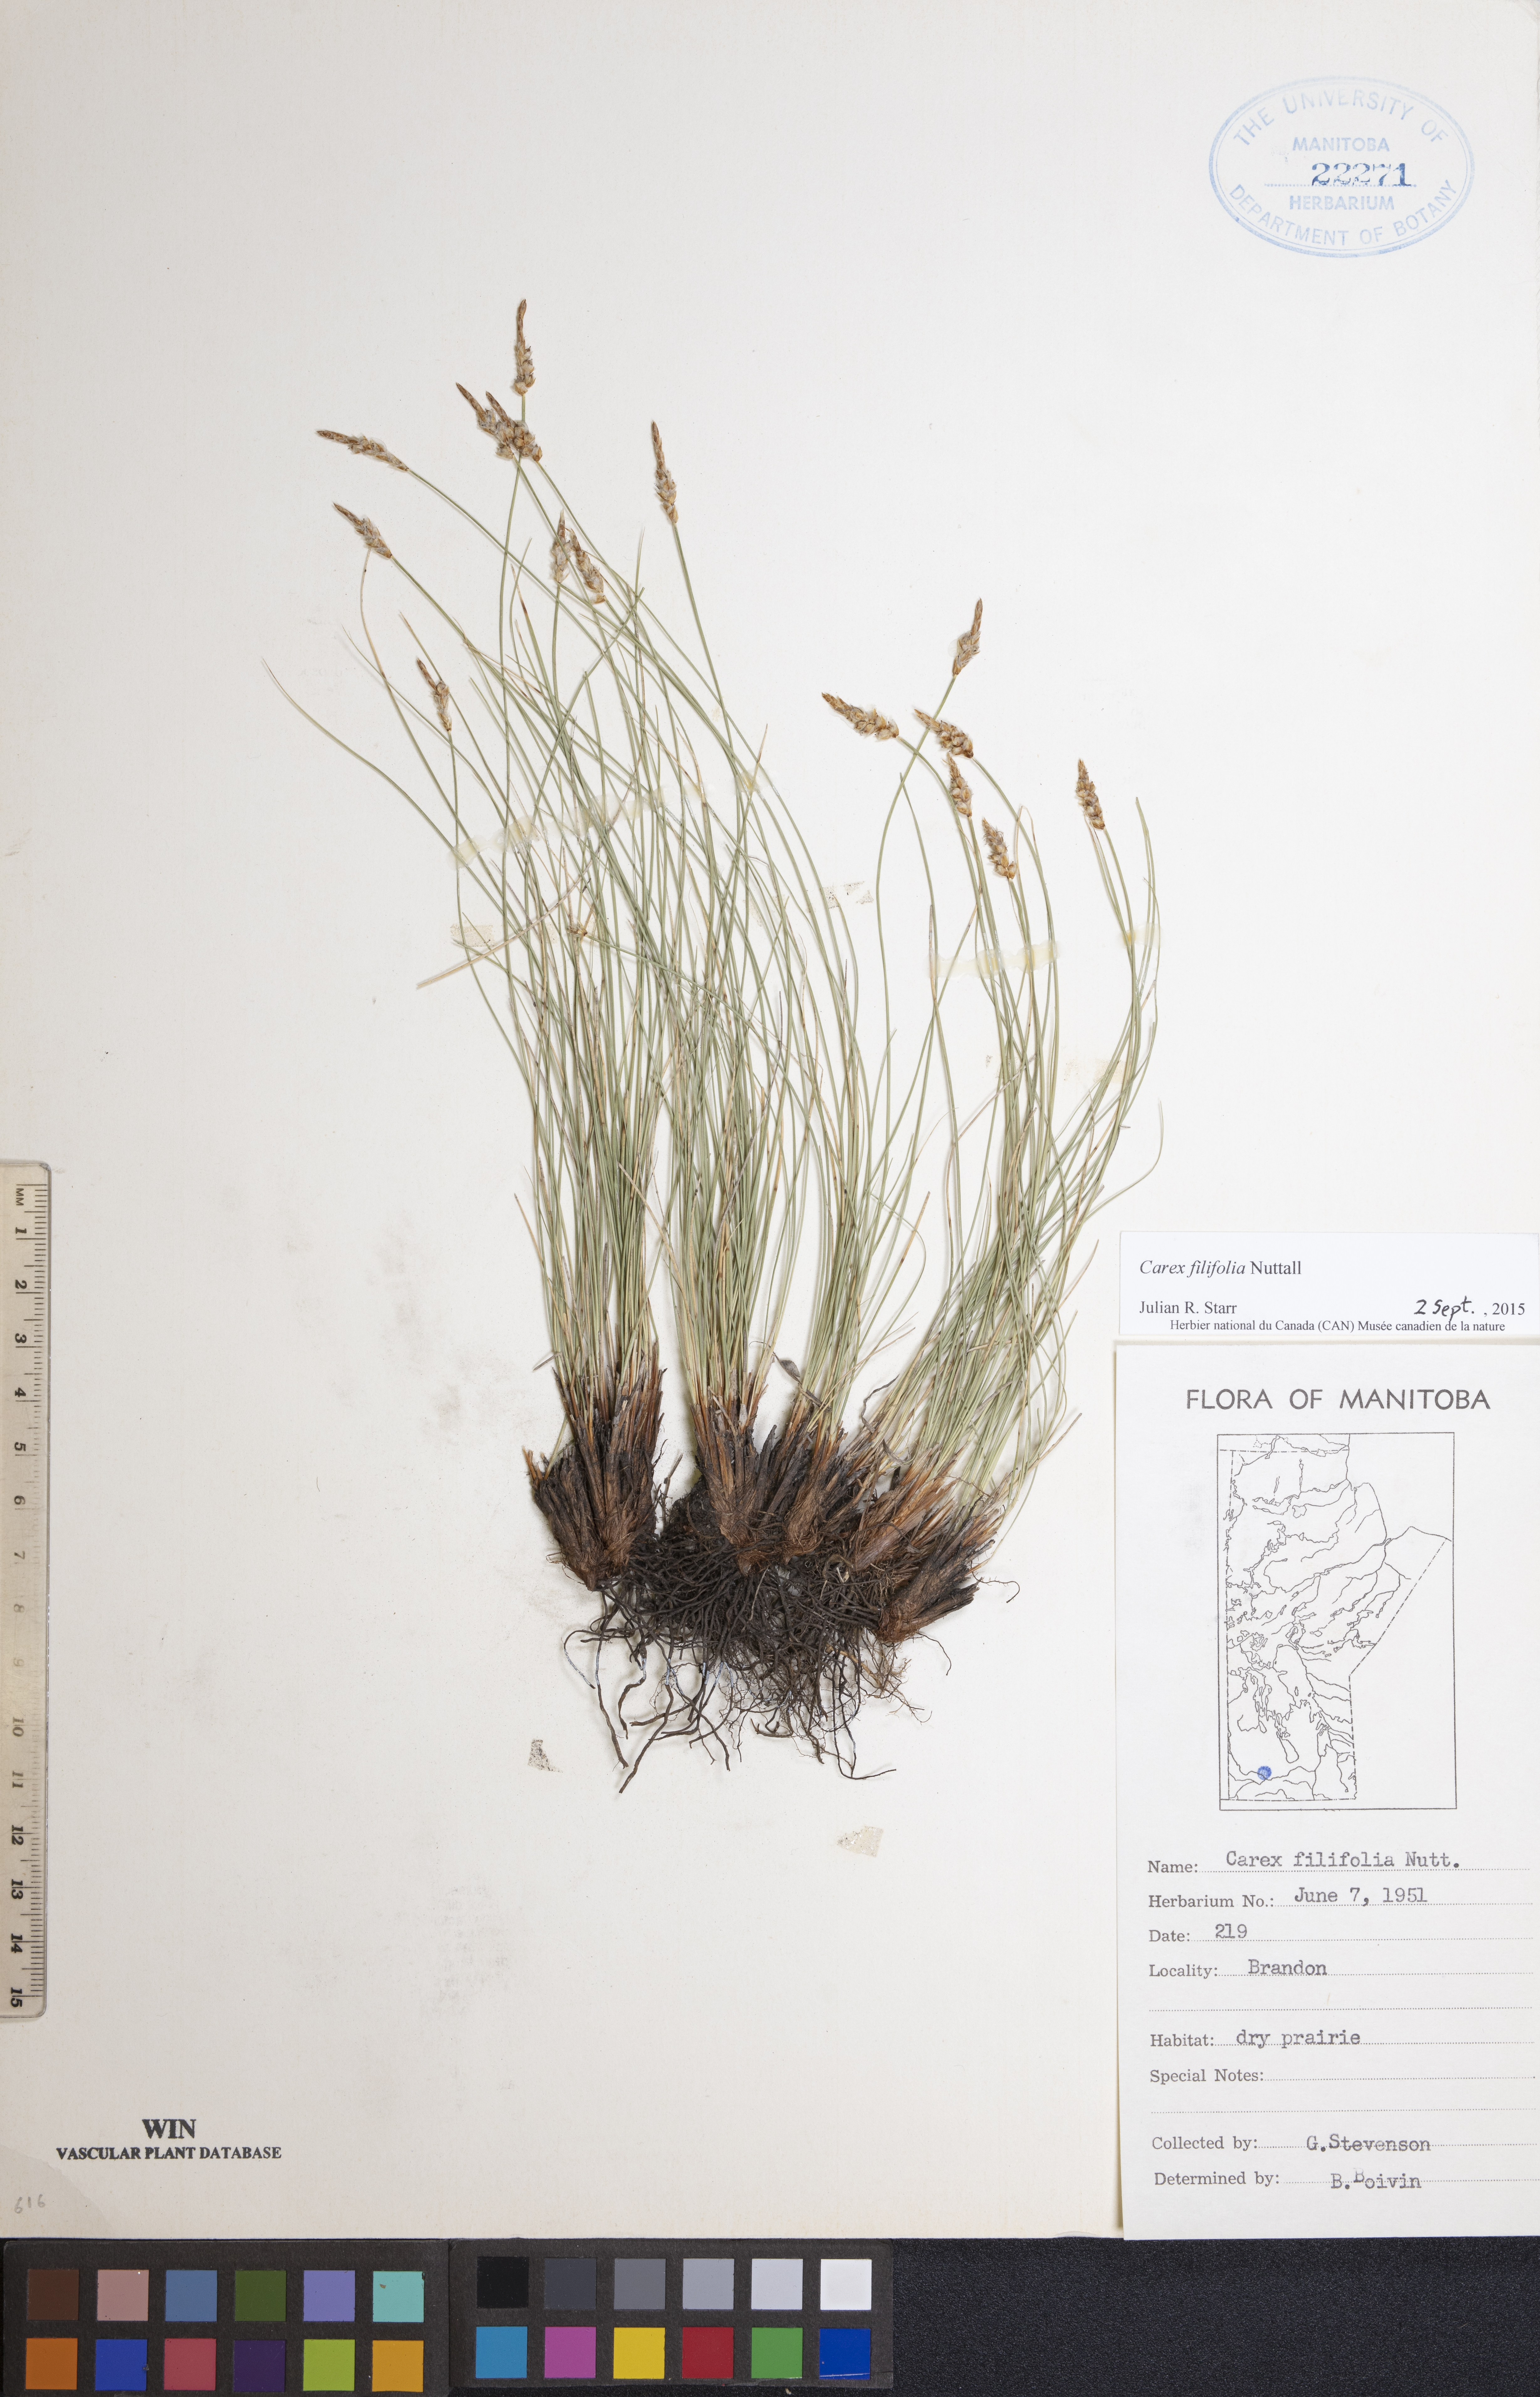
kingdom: Plantae
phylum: Tracheophyta
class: Liliopsida
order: Poales
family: Cyperaceae
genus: Carex
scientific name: Carex filifolia
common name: Threadleaf sedge
